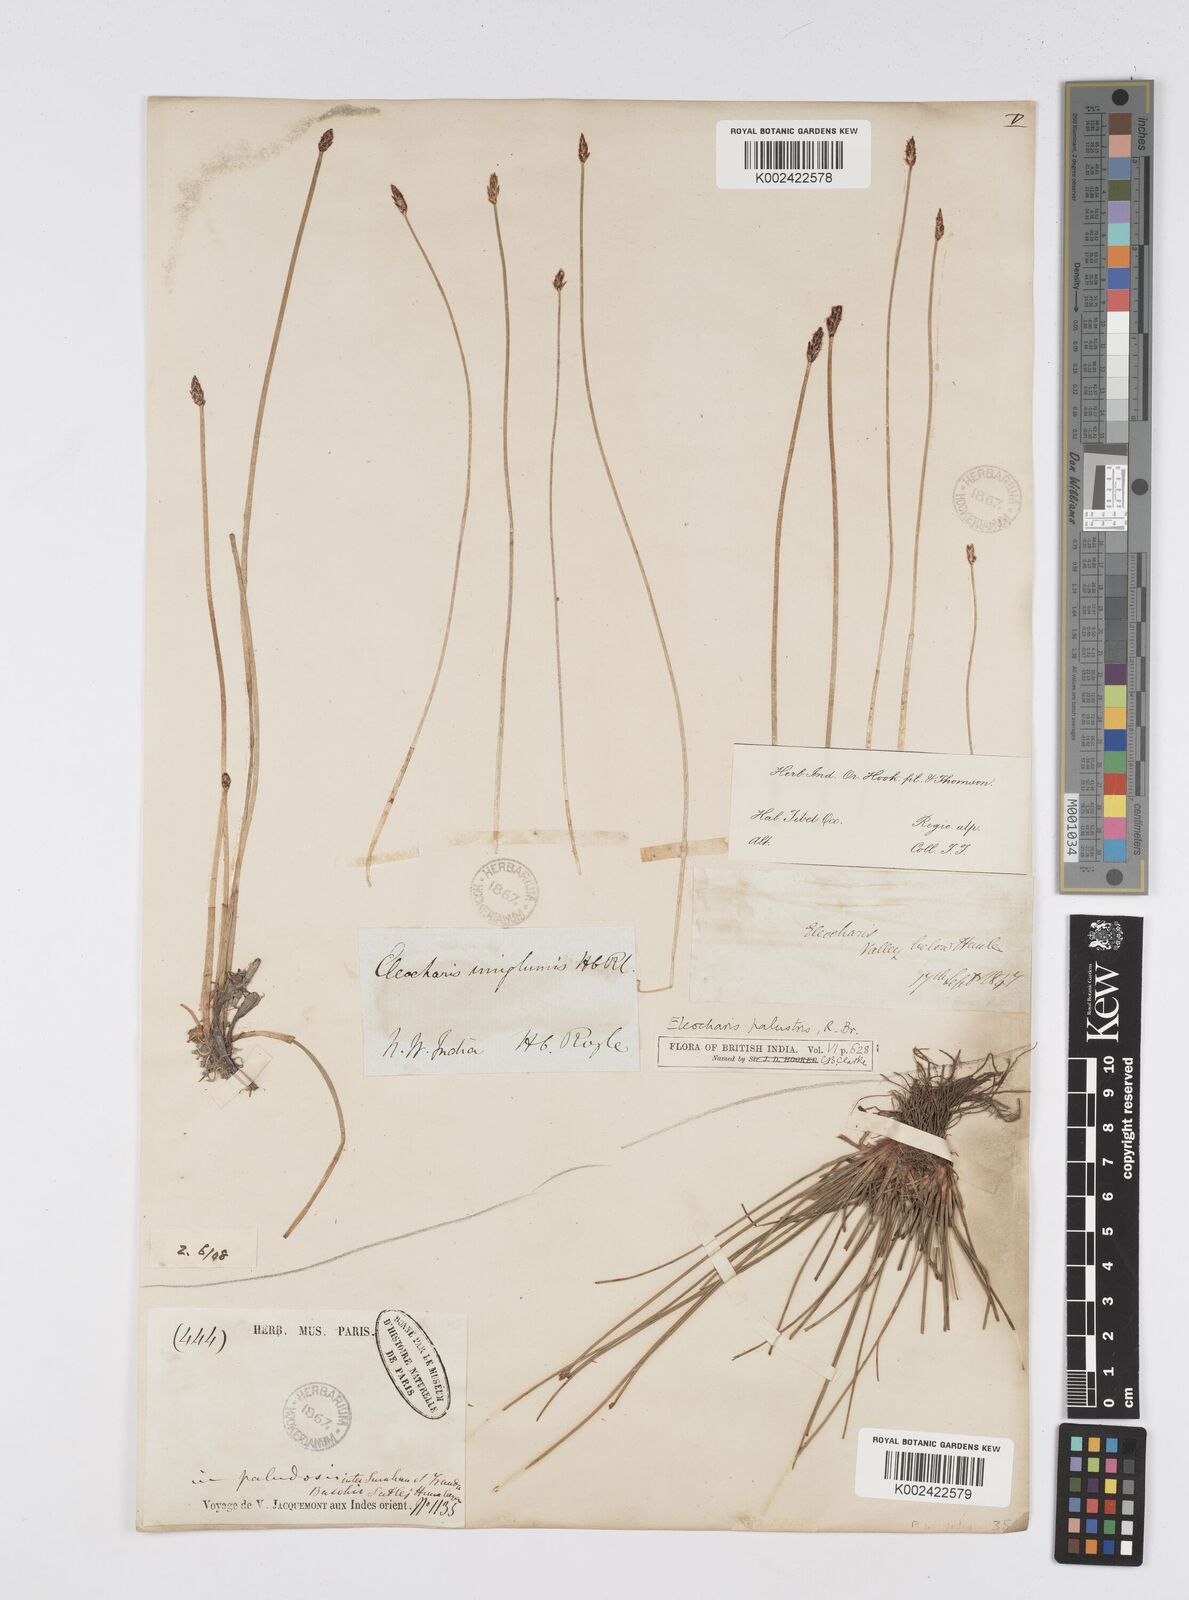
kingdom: Plantae
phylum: Tracheophyta
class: Liliopsida
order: Poales
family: Cyperaceae
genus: Eleocharis
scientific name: Eleocharis uniglumis
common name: Slender spike-rush
